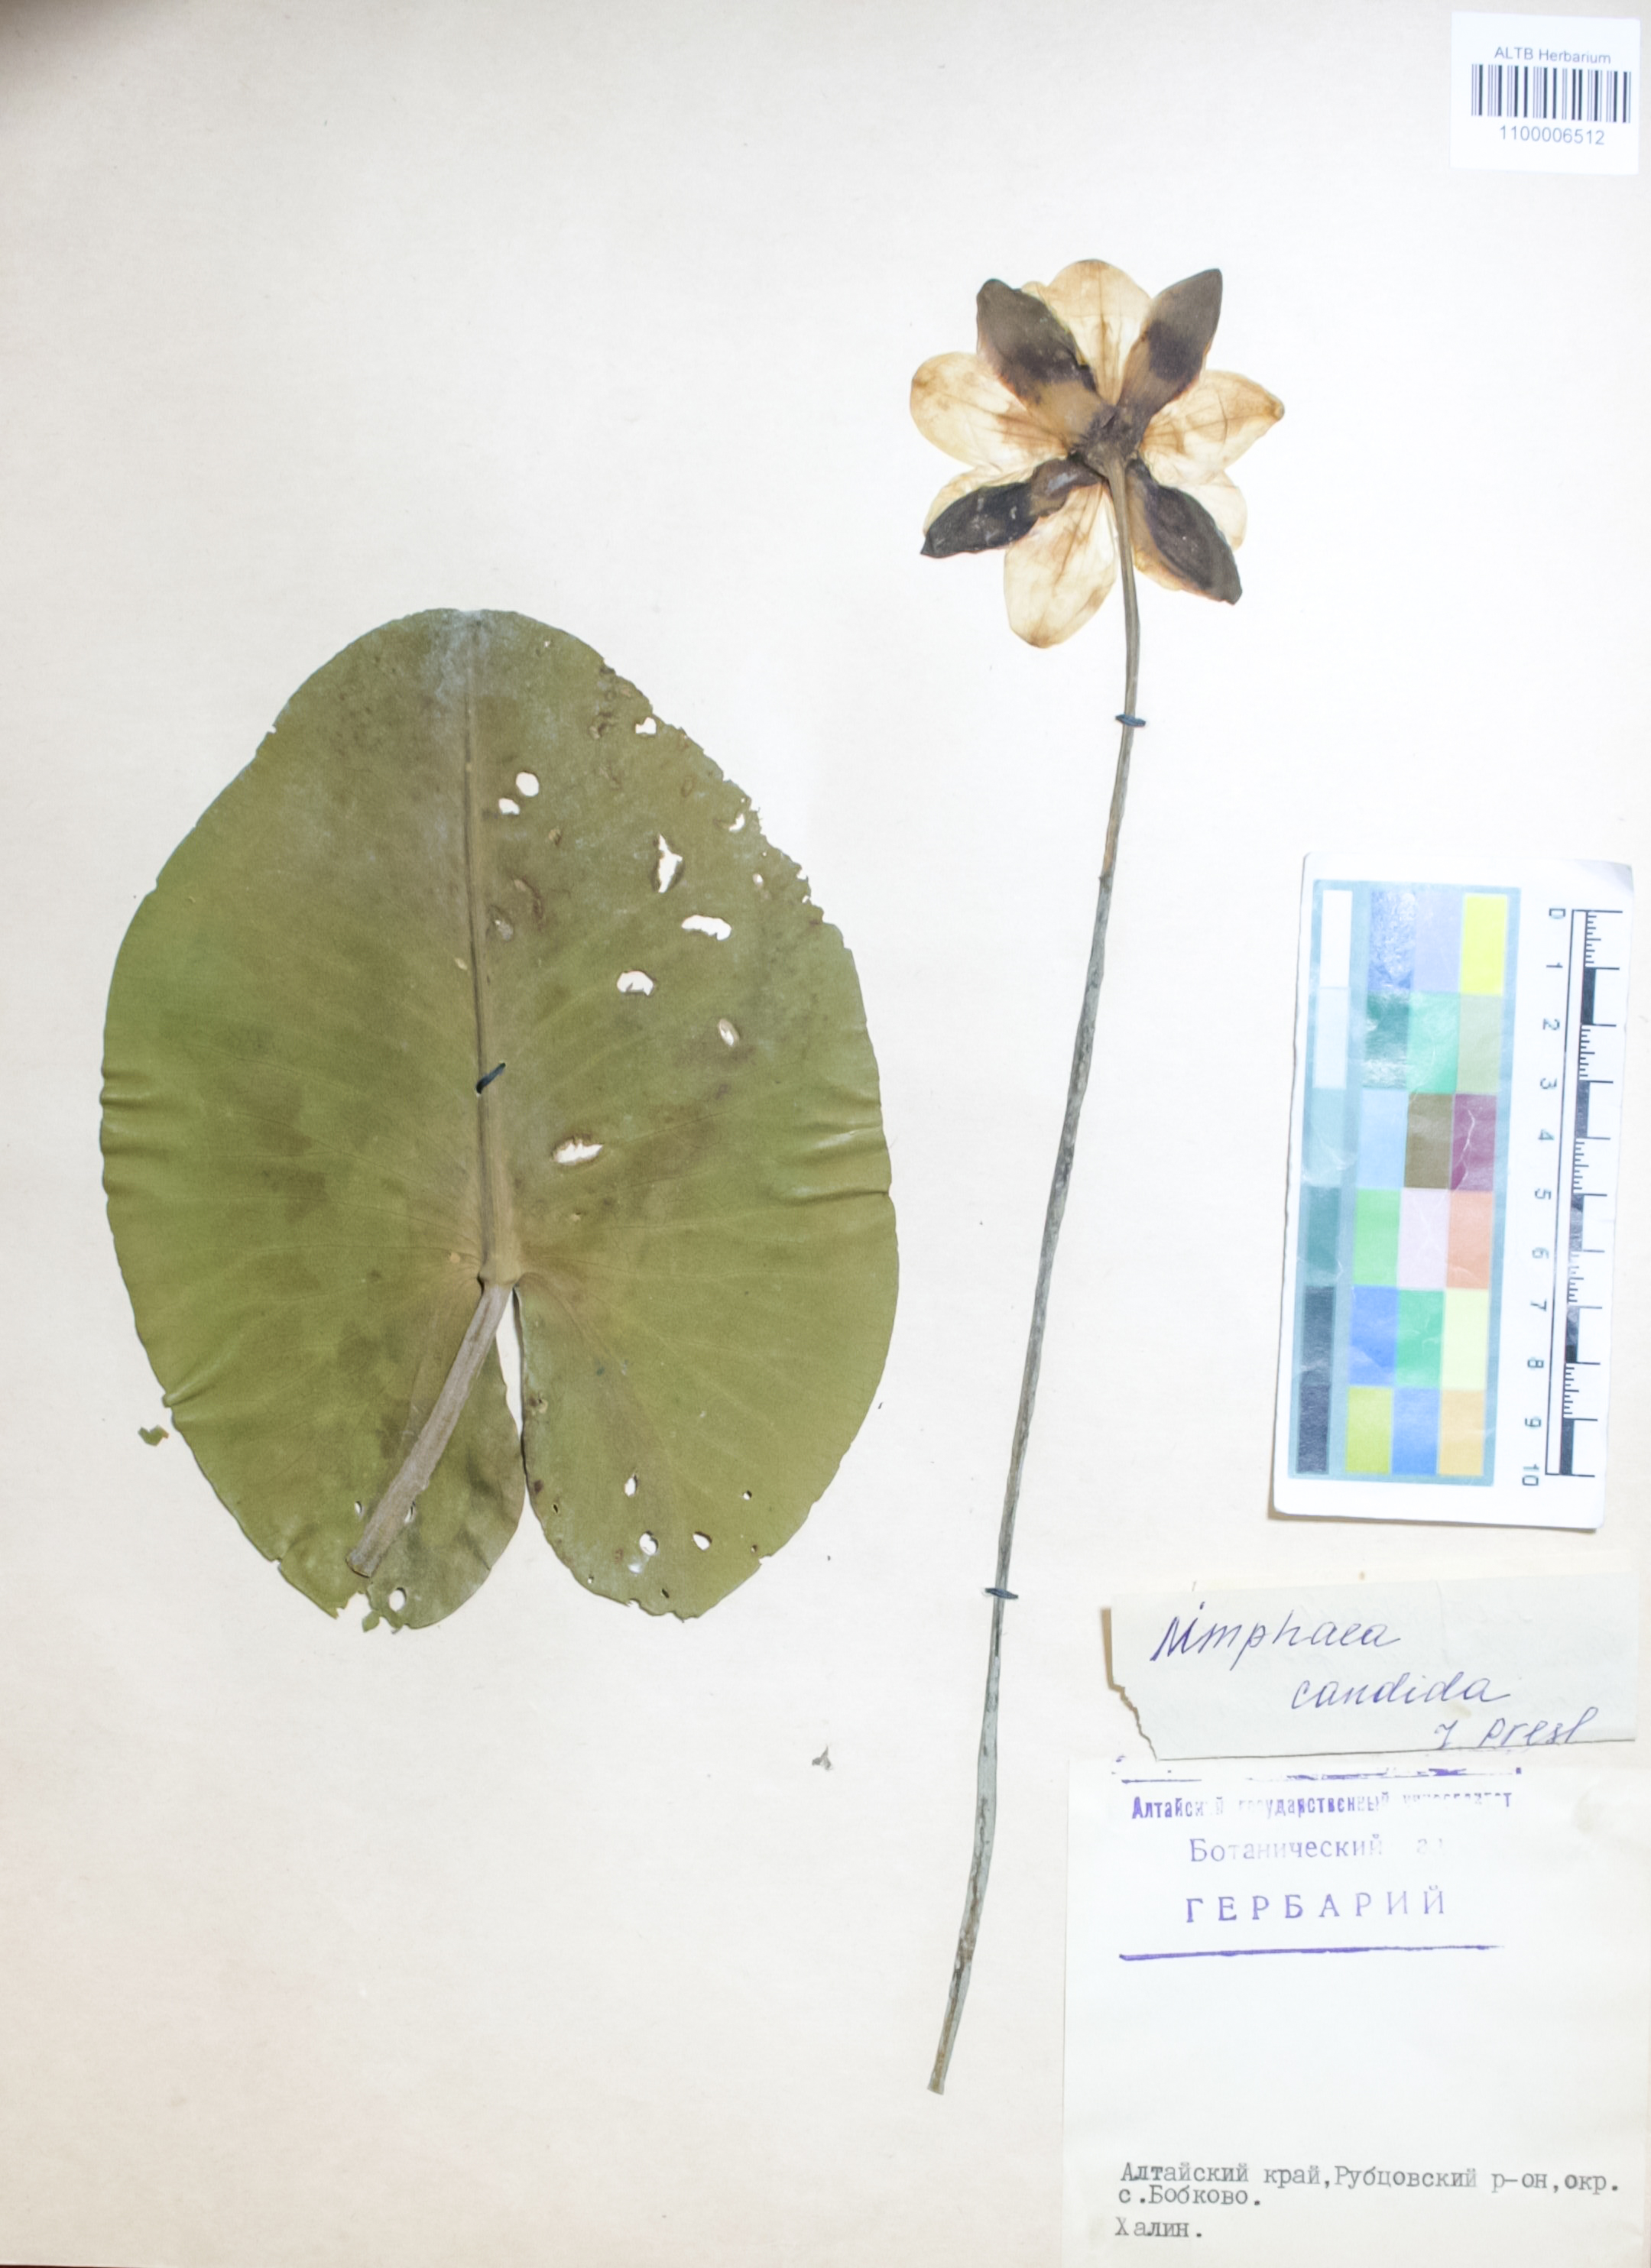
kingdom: Plantae
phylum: Tracheophyta
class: Magnoliopsida
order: Nymphaeales
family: Nymphaeaceae
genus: Nymphaea
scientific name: Nymphaea candida
